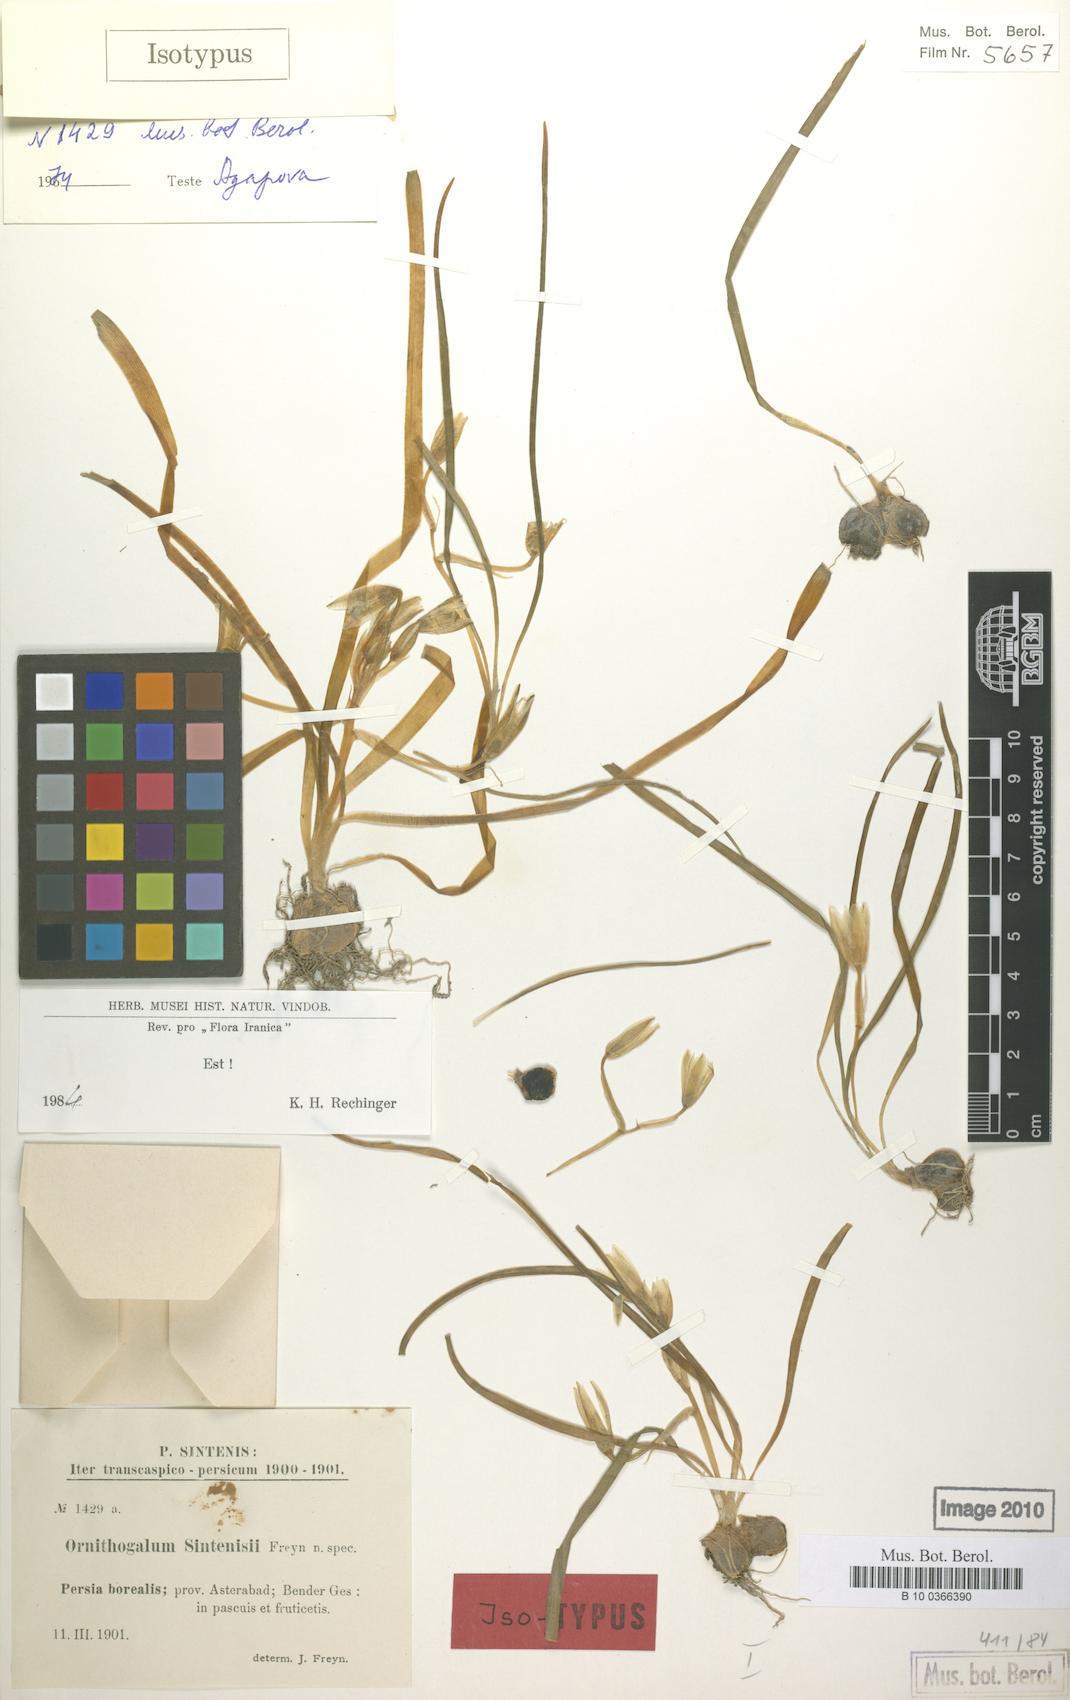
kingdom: Plantae
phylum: Tracheophyta
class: Liliopsida
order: Asparagales
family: Asparagaceae
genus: Ornithogalum
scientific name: Ornithogalum sintenisii
